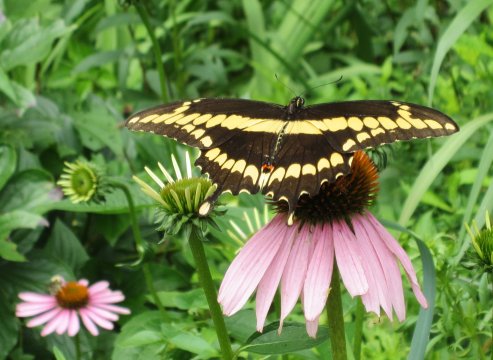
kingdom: Animalia
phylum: Arthropoda
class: Insecta
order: Lepidoptera
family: Papilionidae
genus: Papilio
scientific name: Papilio cresphontes
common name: Eastern Giant Swallowtail
